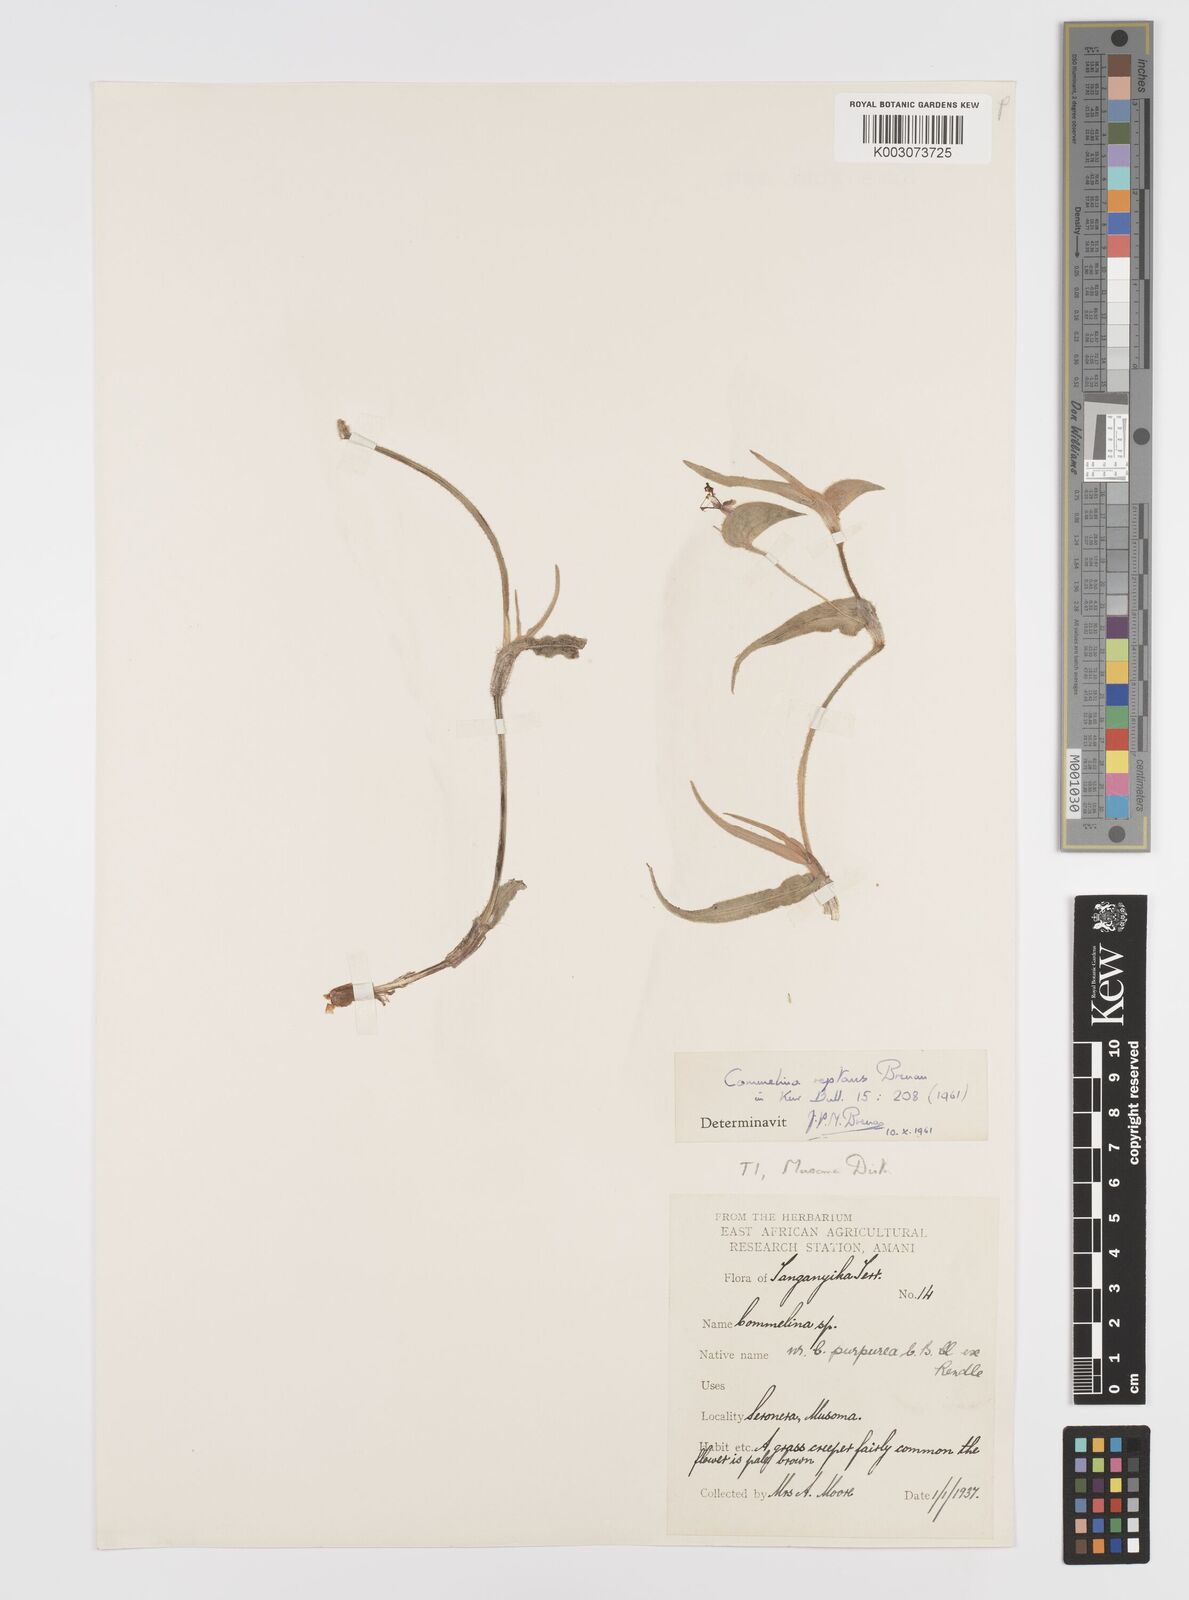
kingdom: Plantae
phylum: Tracheophyta
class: Liliopsida
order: Commelinales
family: Commelinaceae
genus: Commelina
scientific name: Commelina reptans
